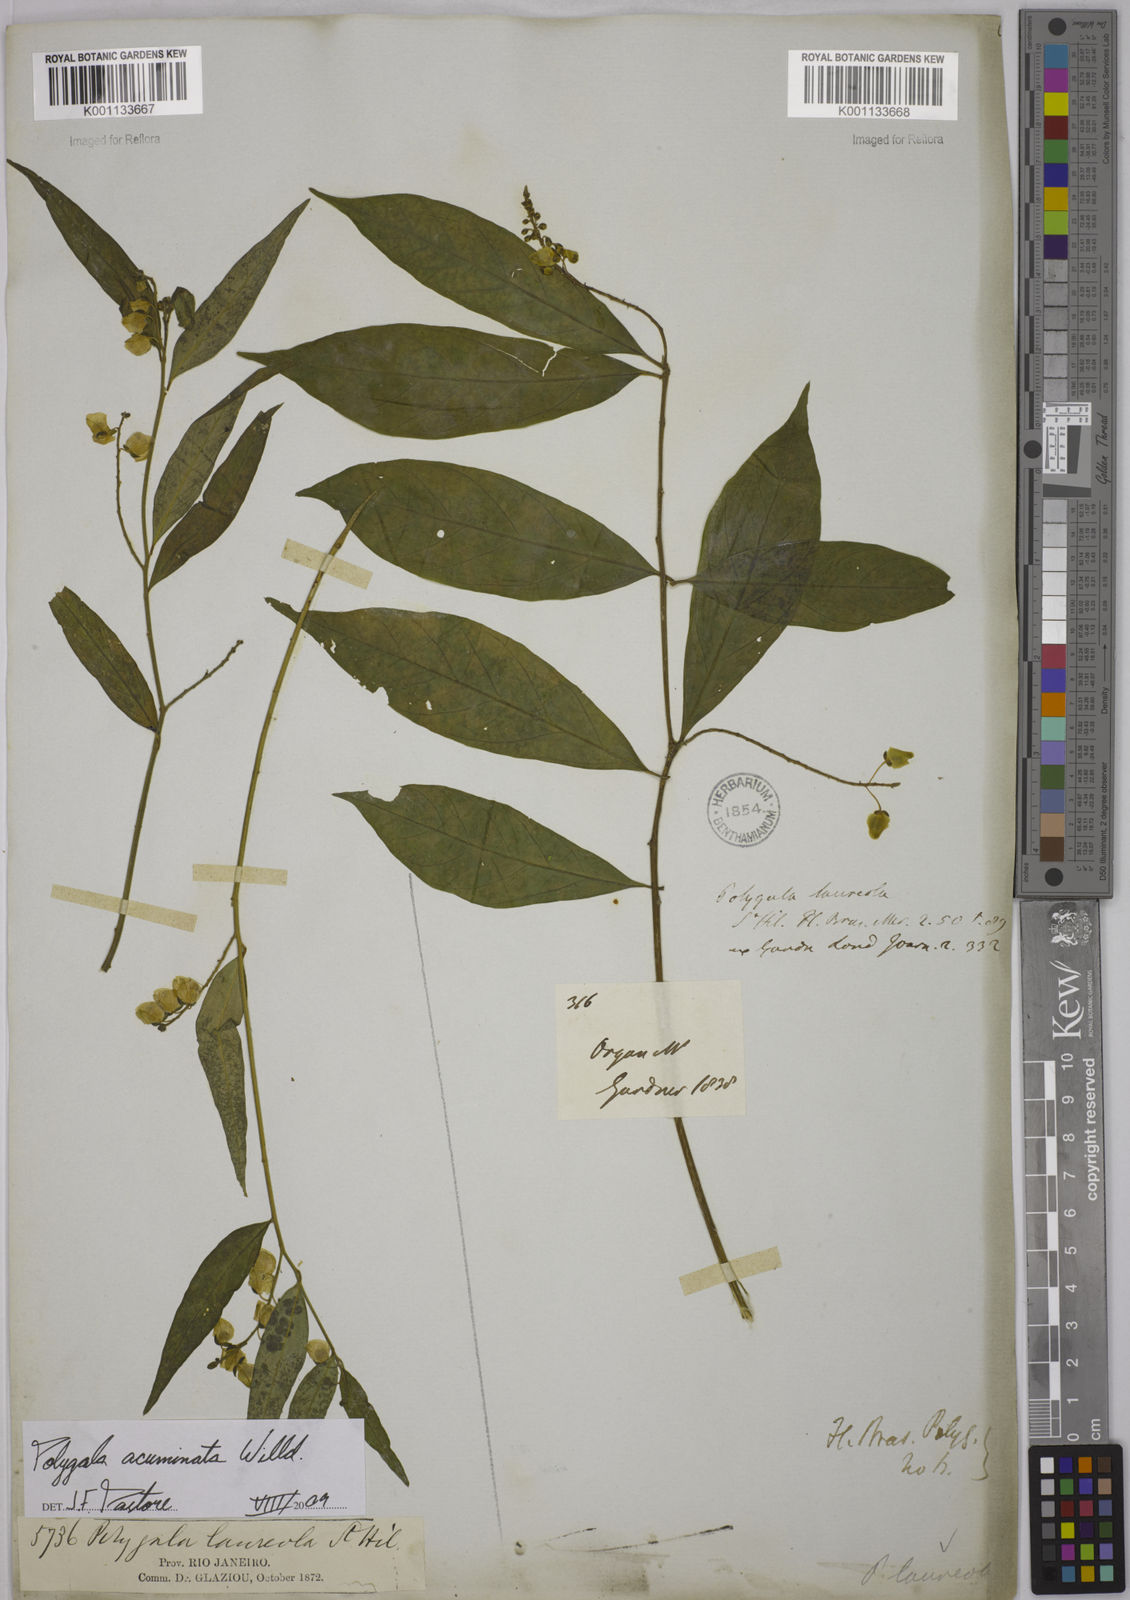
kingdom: Plantae
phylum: Tracheophyta
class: Magnoliopsida
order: Fabales
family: Polygalaceae
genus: Asemeia
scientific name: Asemeia acuminata
